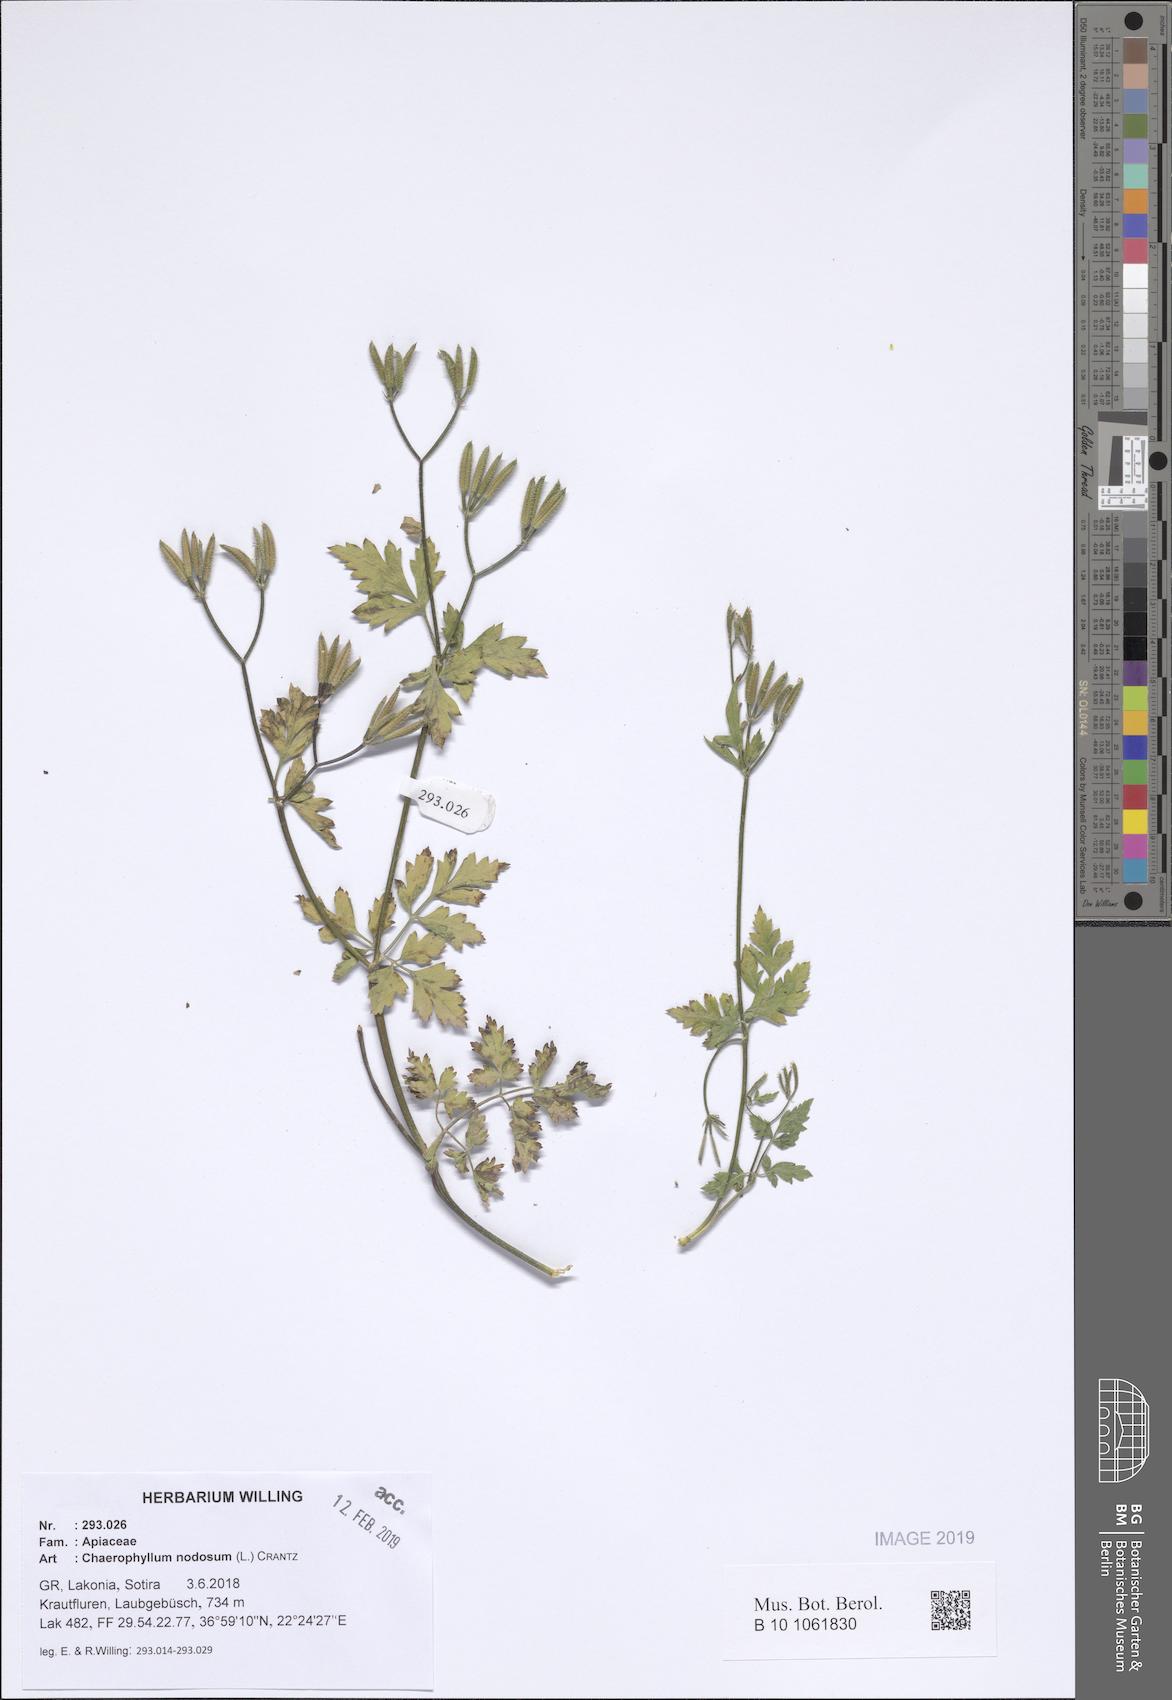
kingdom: Plantae
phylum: Tracheophyta
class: Magnoliopsida
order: Apiales
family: Apiaceae
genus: Chaerophyllum
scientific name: Chaerophyllum nodosum
